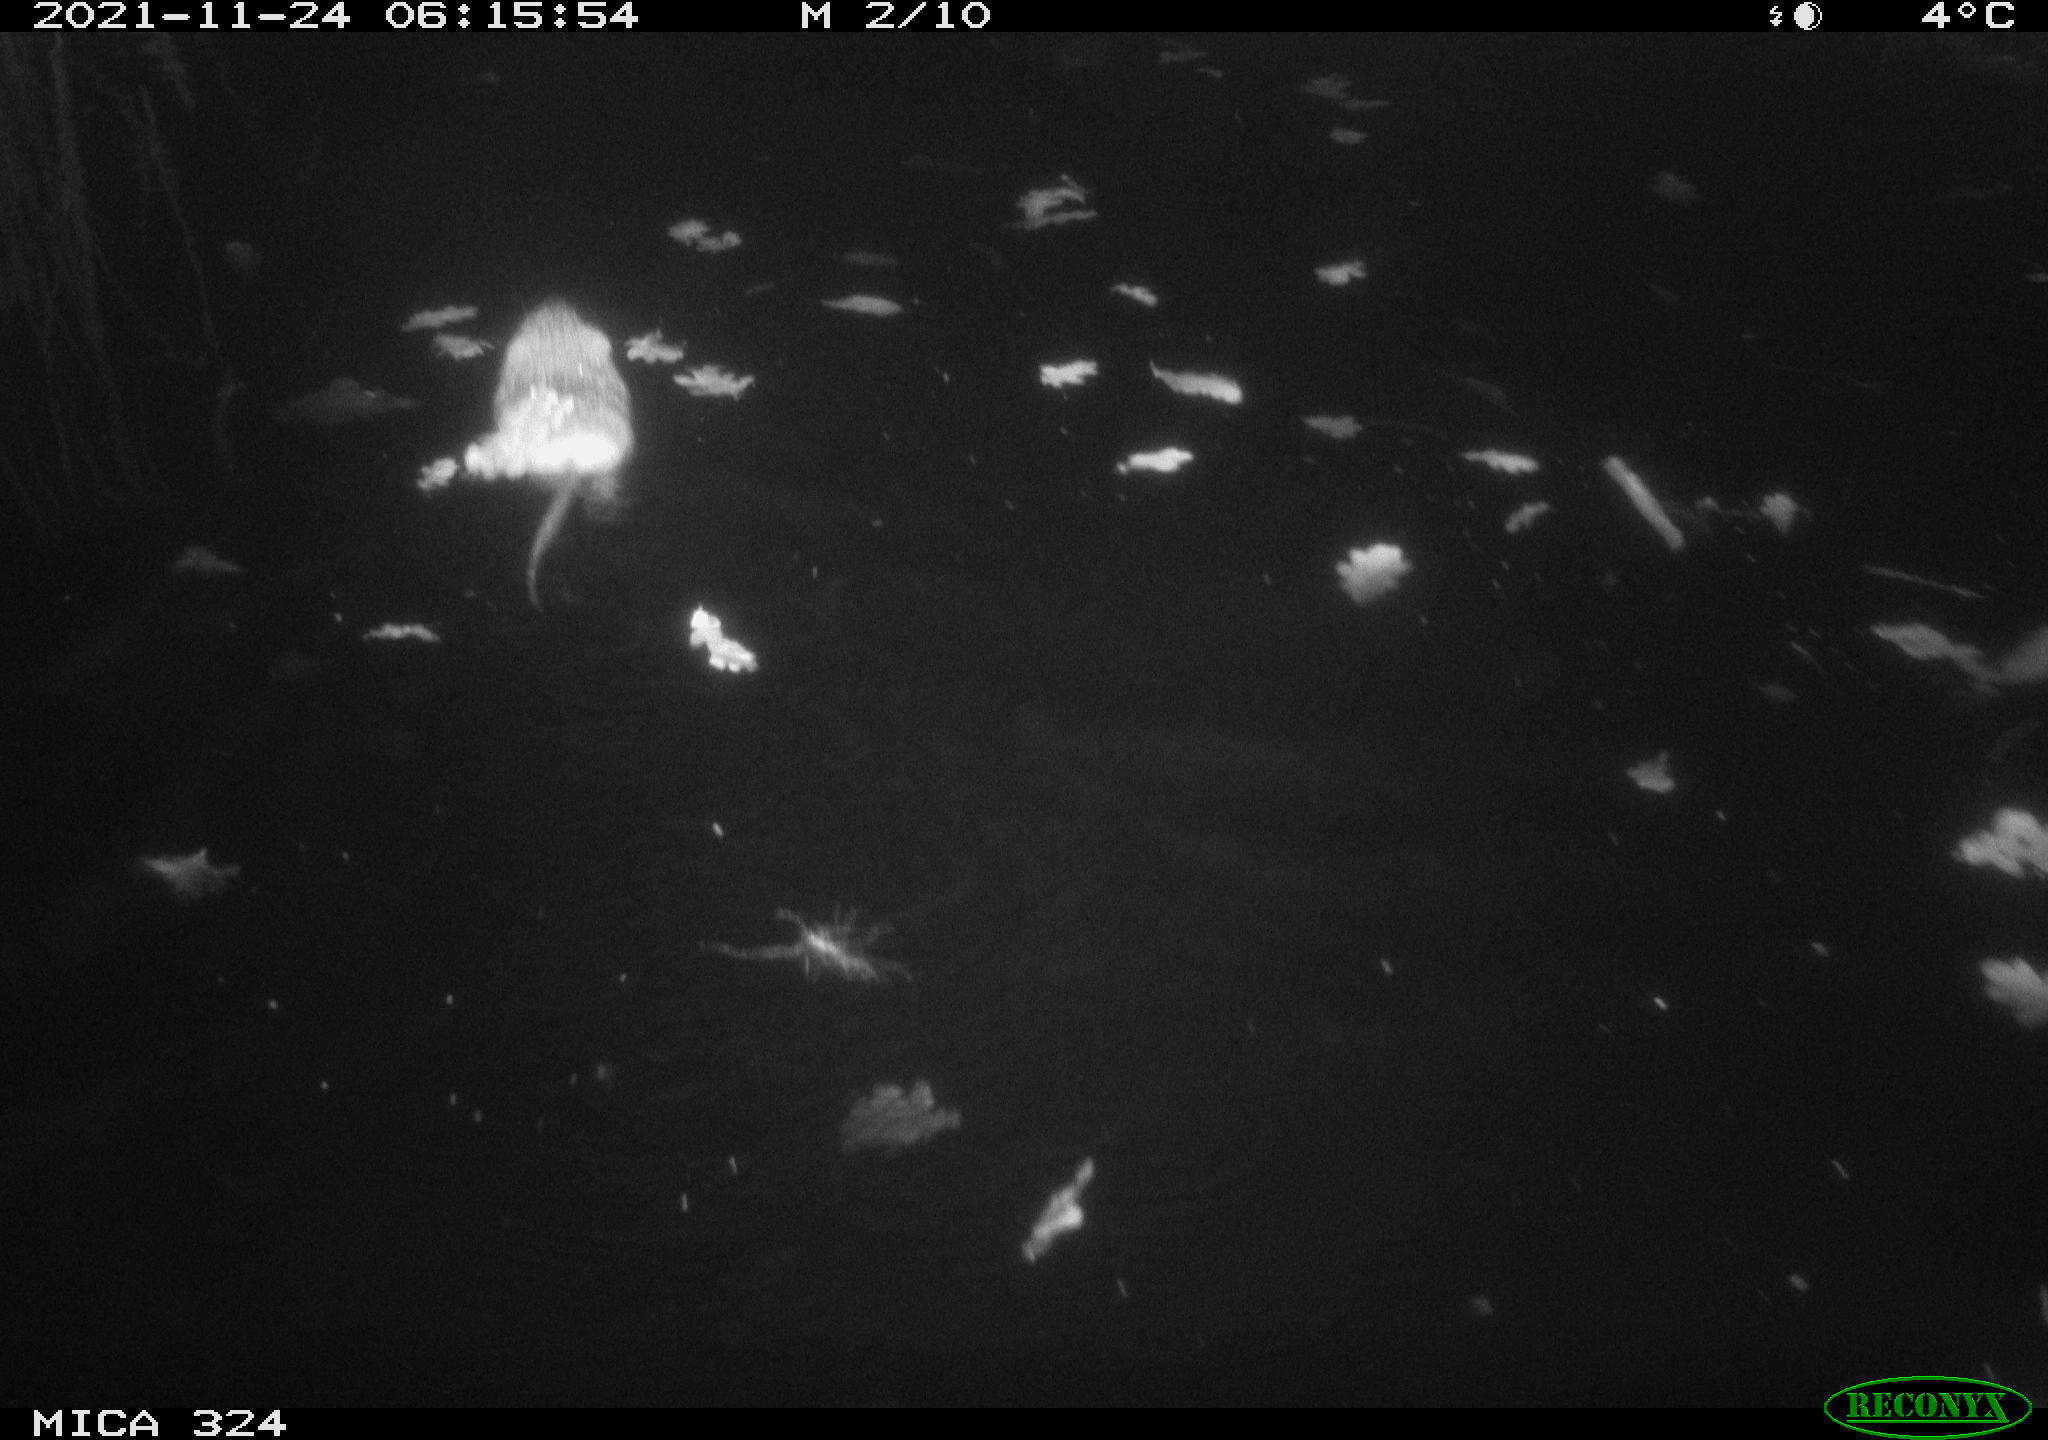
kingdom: Animalia
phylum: Chordata
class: Mammalia
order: Rodentia
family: Cricetidae
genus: Ondatra
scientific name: Ondatra zibethicus
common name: Muskrat
